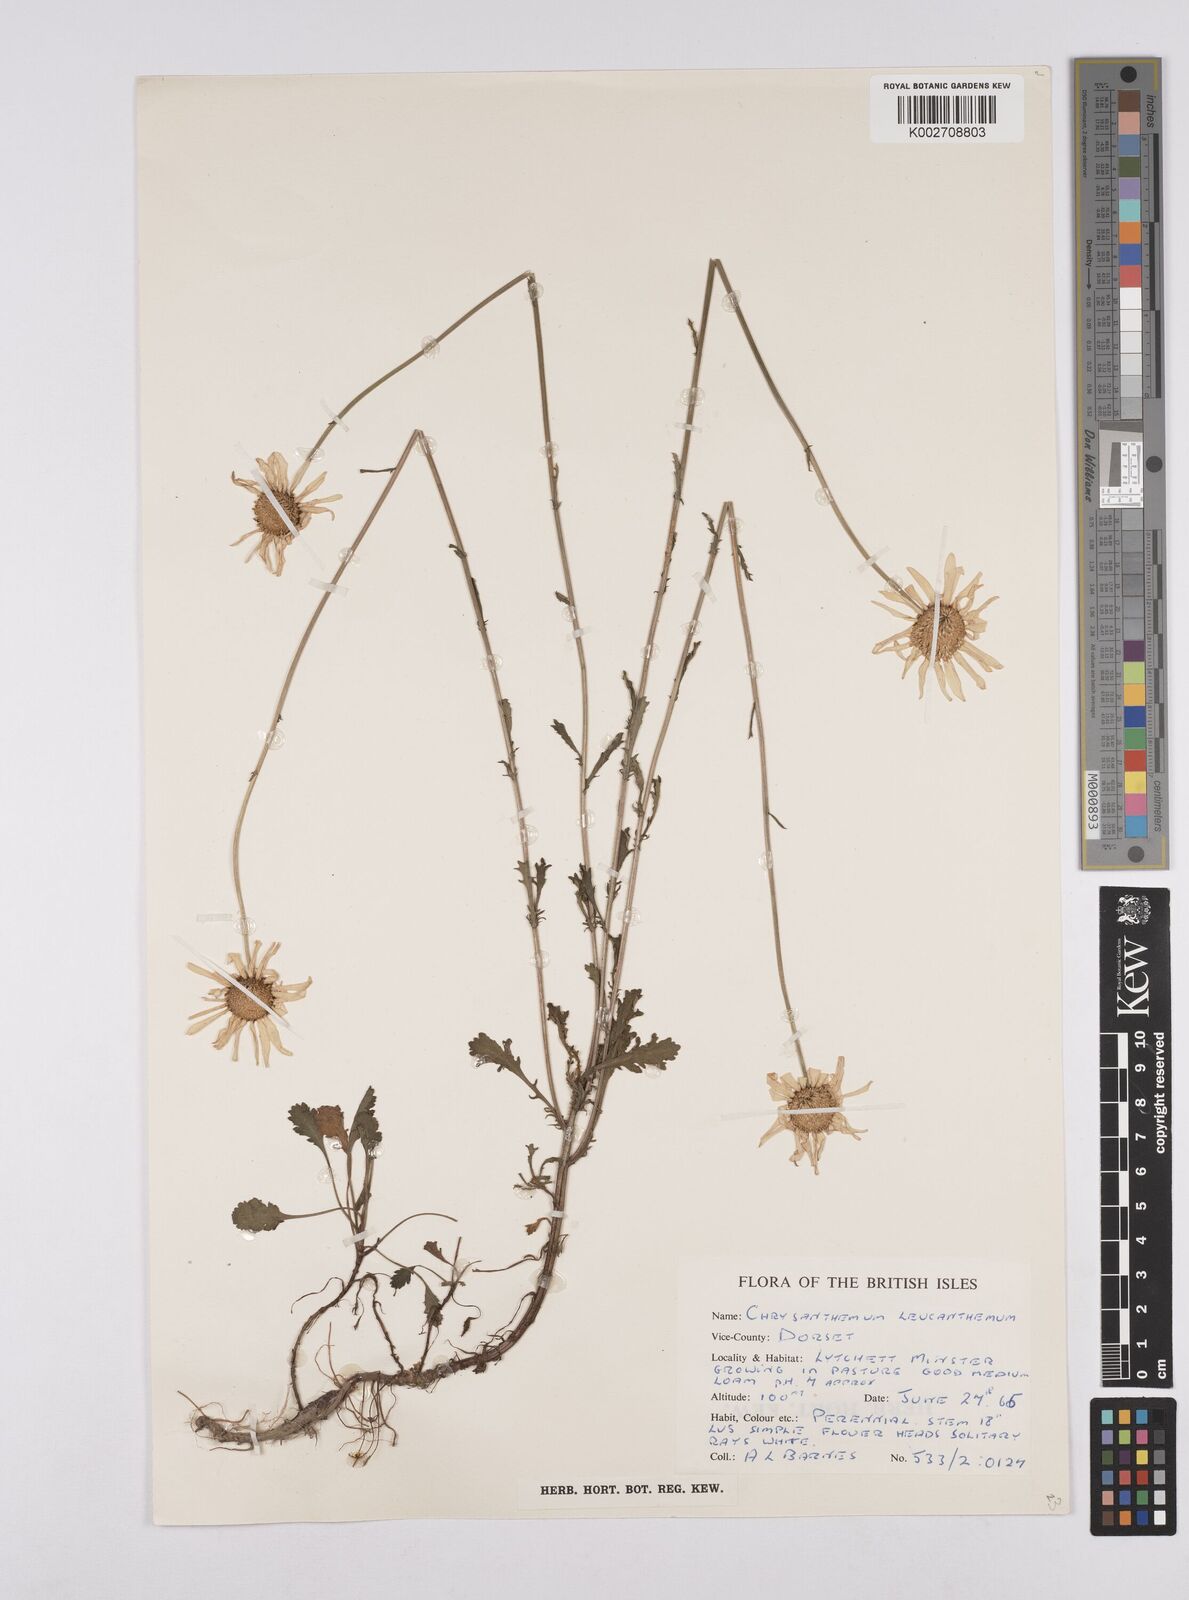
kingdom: Plantae
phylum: Tracheophyta
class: Magnoliopsida
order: Asterales
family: Asteraceae
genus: Leucanthemum
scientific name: Leucanthemum vulgare
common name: Oxeye daisy
